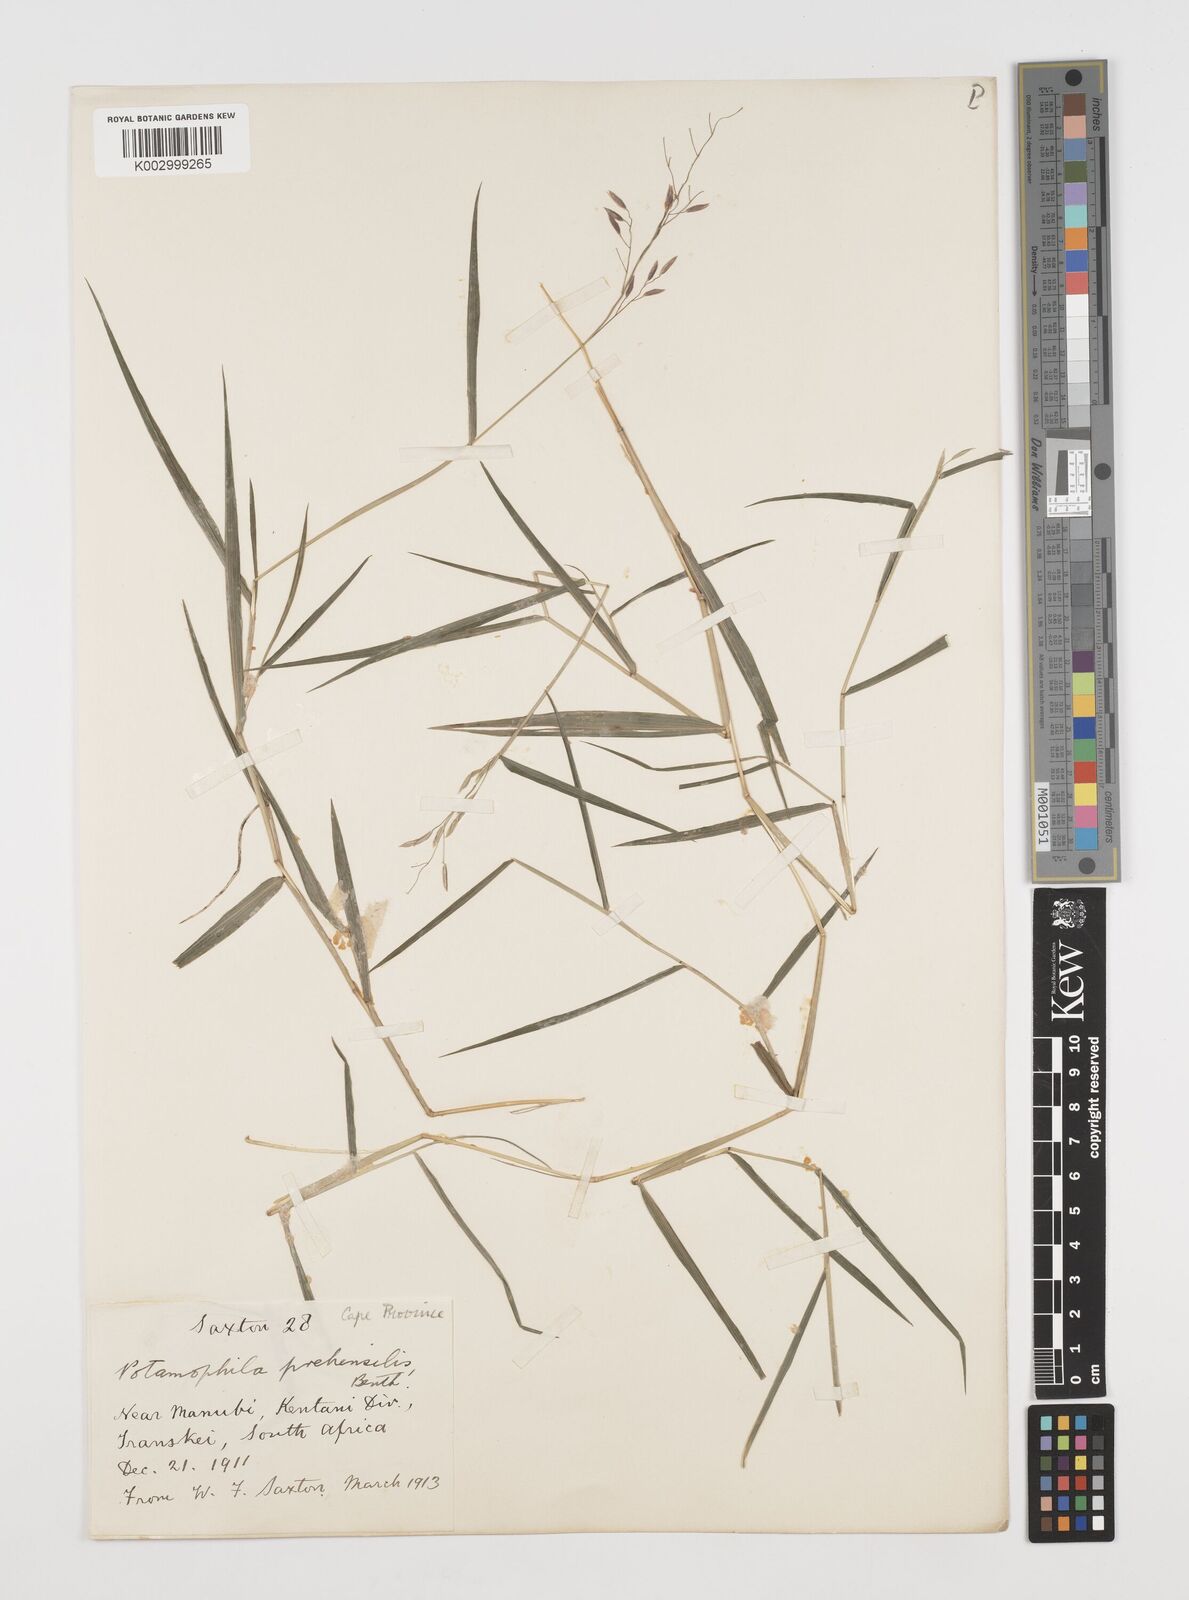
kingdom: Plantae
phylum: Tracheophyta
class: Liliopsida
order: Poales
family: Poaceae
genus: Prosphytochloa
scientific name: Prosphytochloa prehensilis
